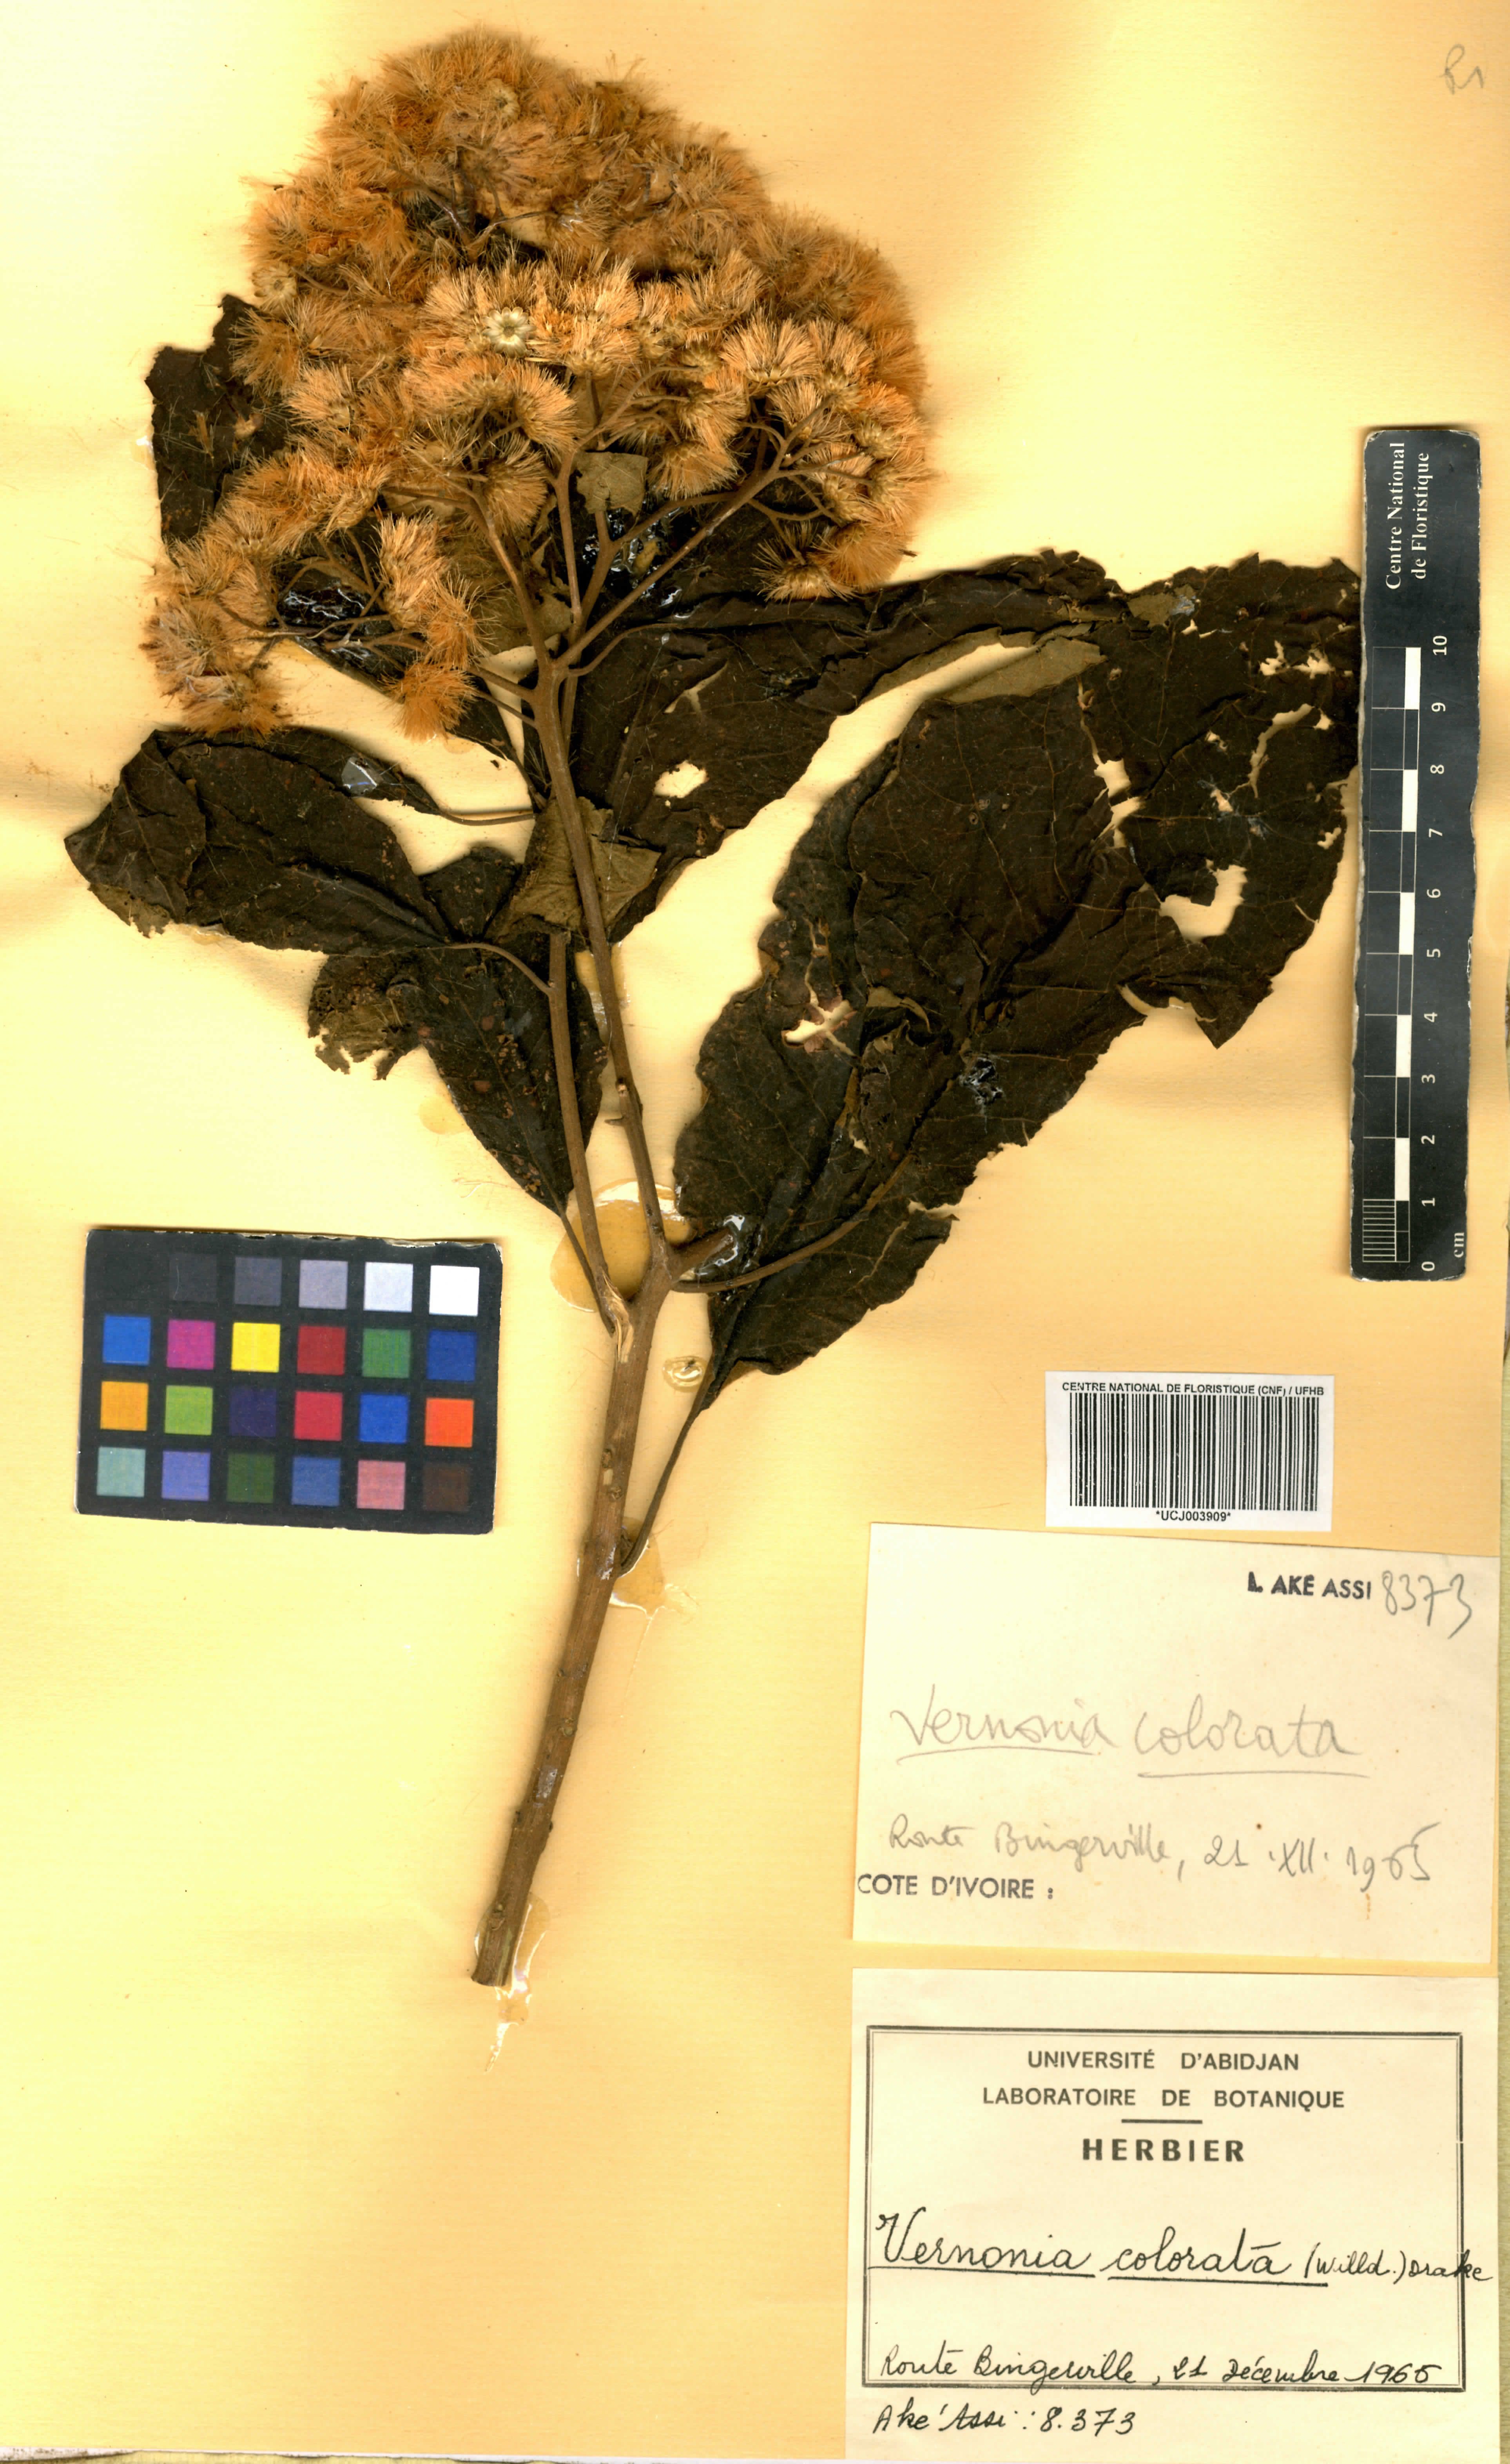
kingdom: Plantae
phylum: Tracheophyta
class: Magnoliopsida
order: Asterales
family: Asteraceae
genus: Vernonia
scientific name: Vernonia colorata
